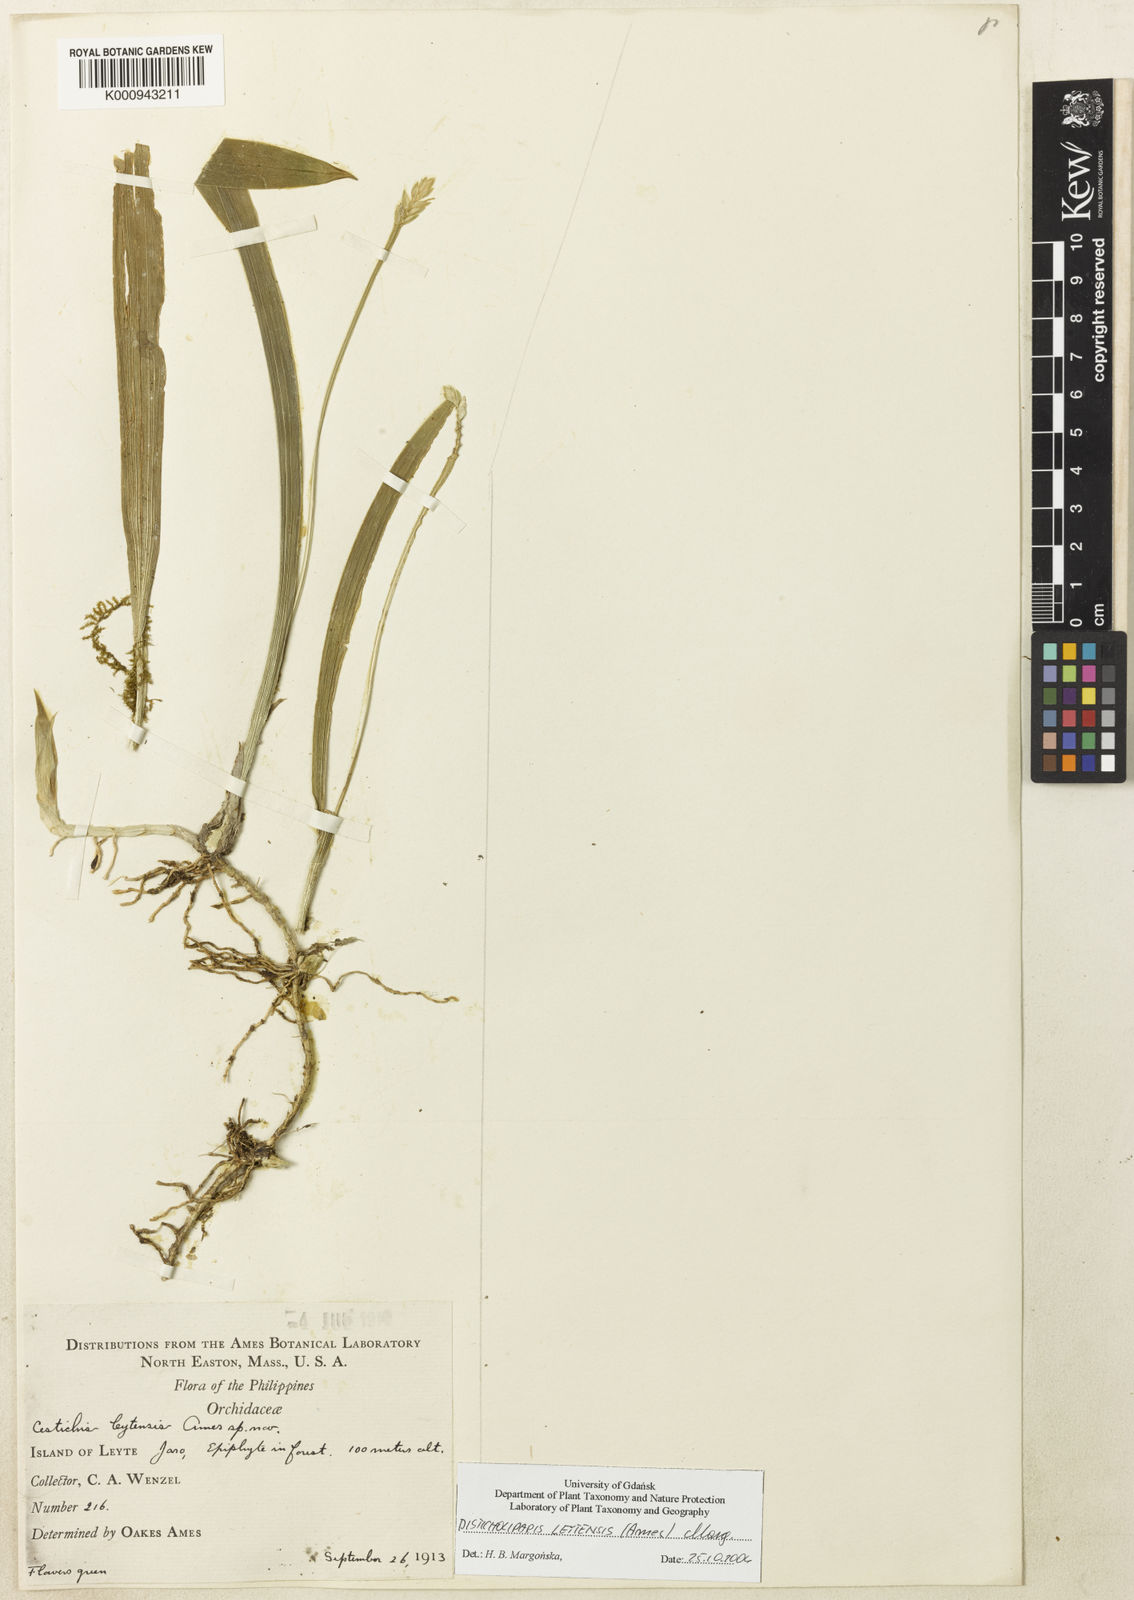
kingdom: Plantae
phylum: Tracheophyta
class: Liliopsida
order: Asparagales
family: Orchidaceae
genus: Stichorkis
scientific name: Stichorkis leytensis
